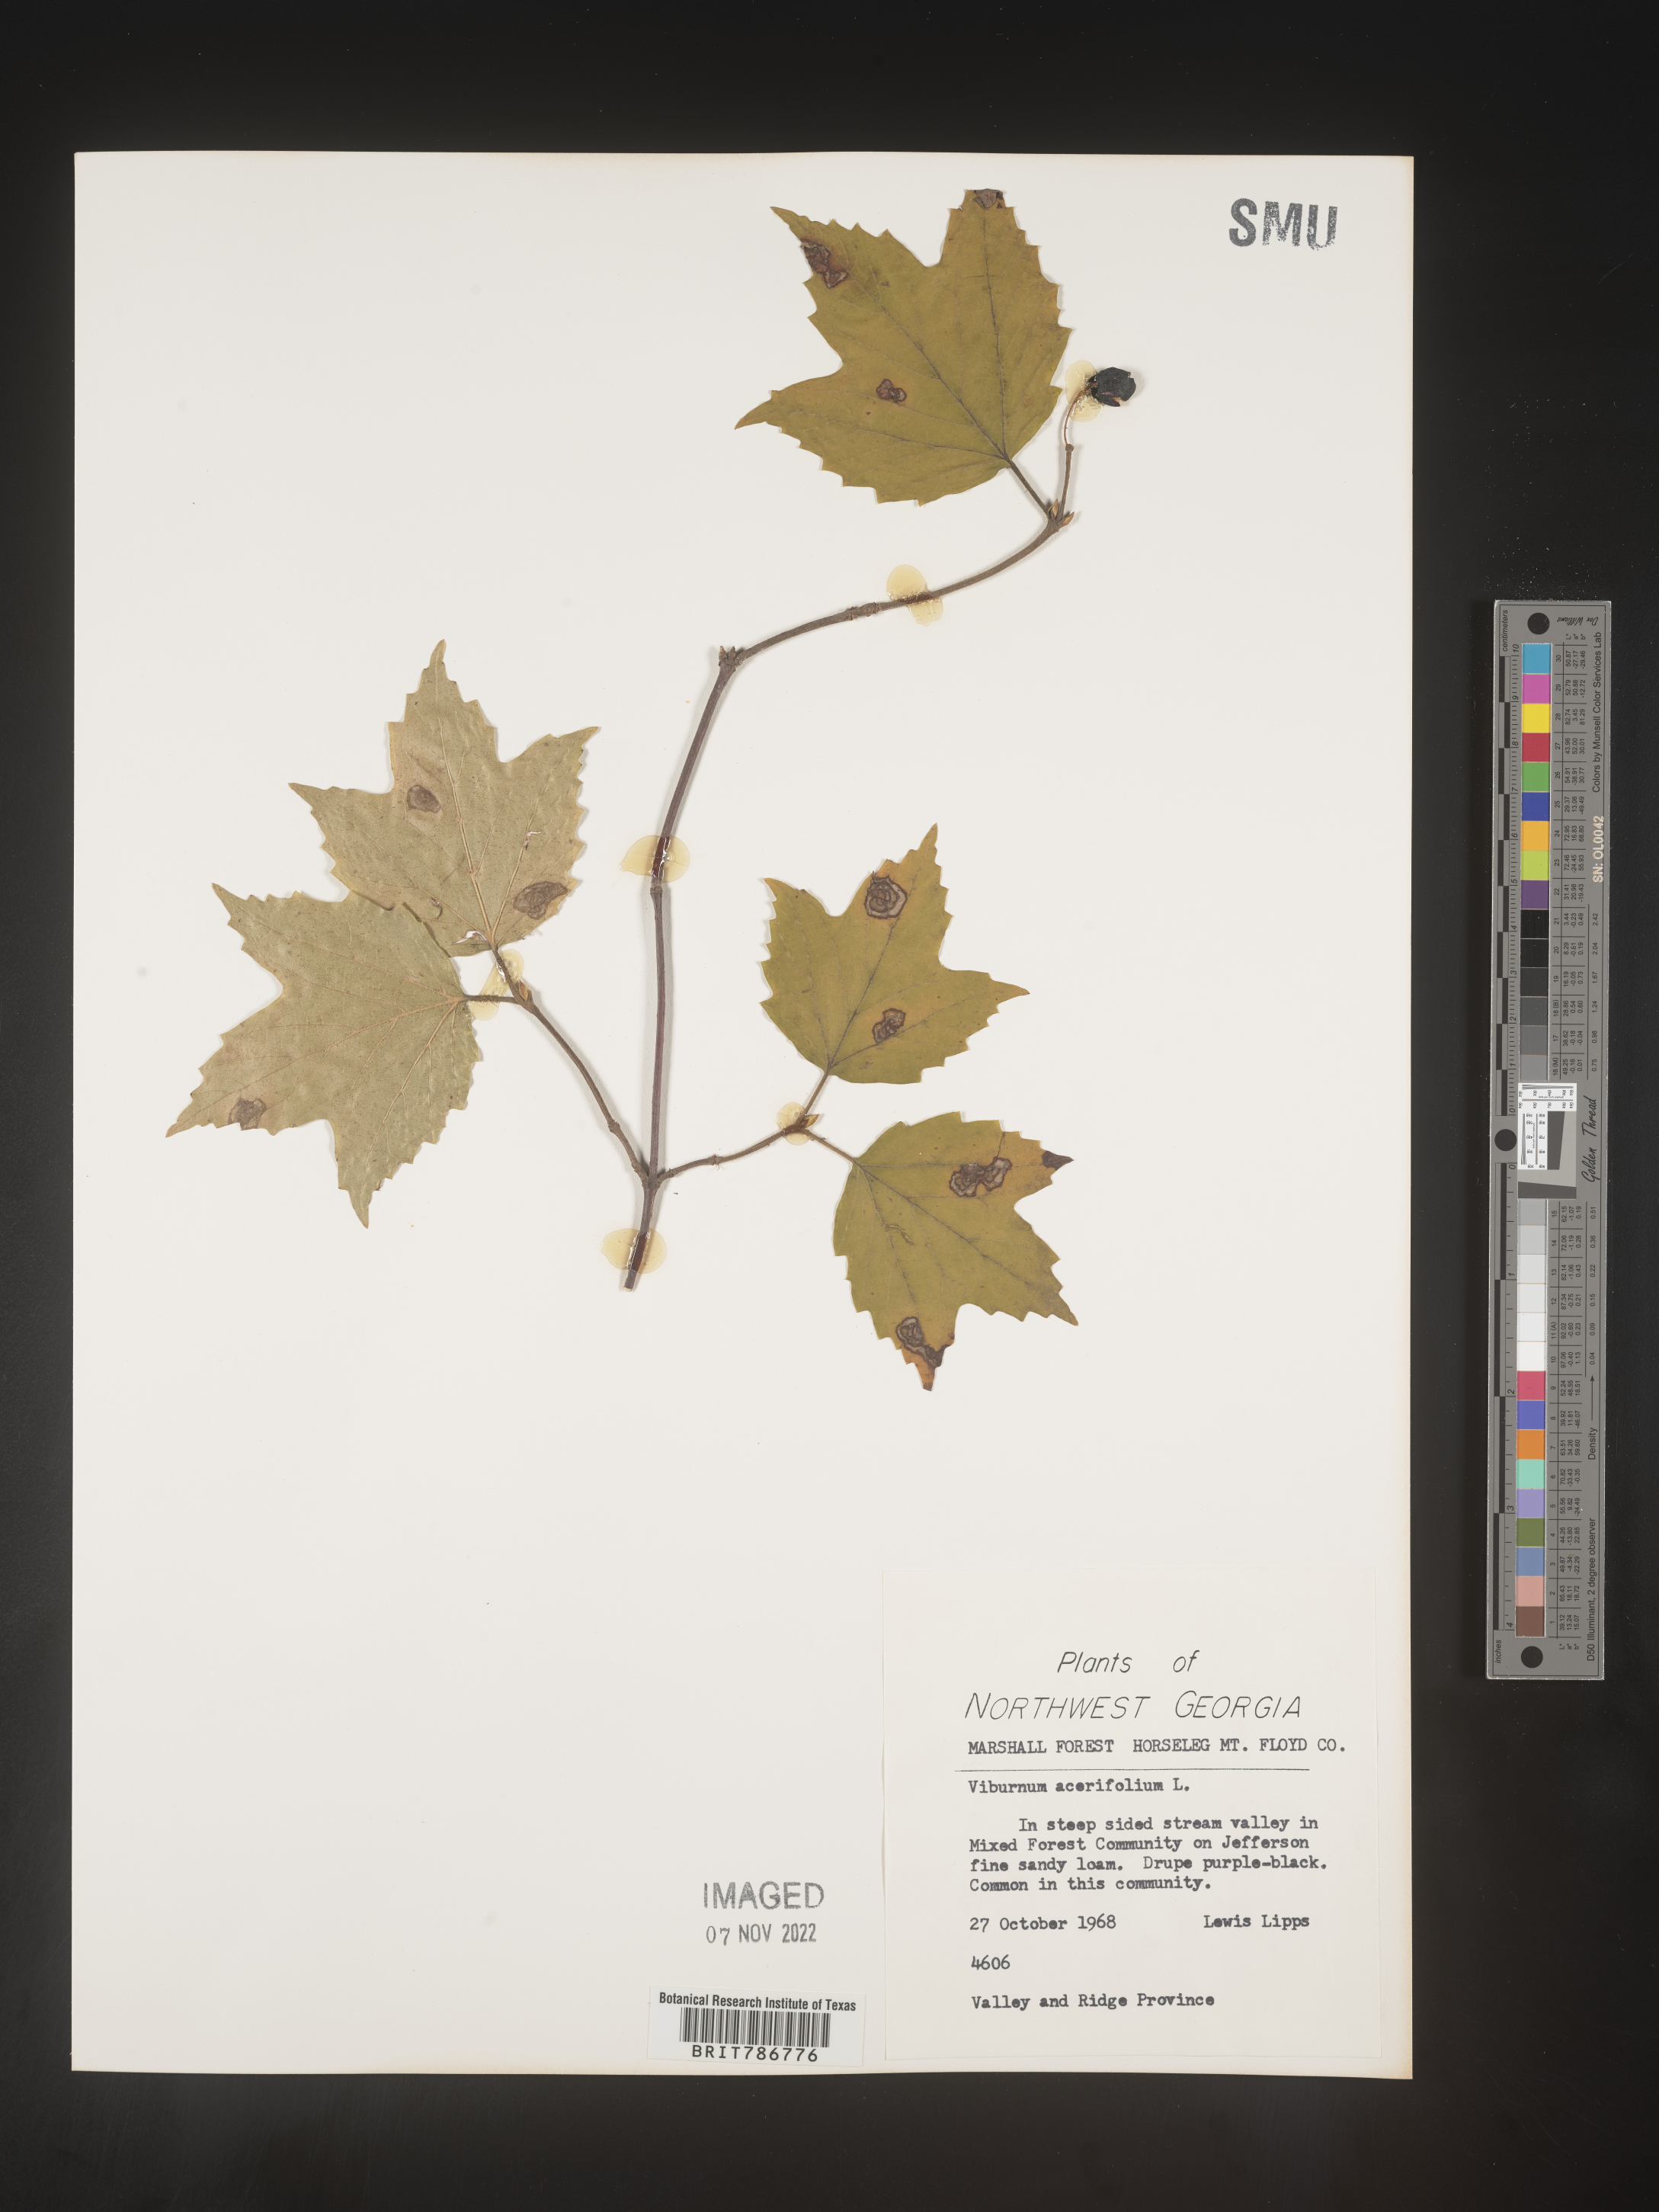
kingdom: Plantae
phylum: Tracheophyta
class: Magnoliopsida
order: Dipsacales
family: Viburnaceae
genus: Viburnum
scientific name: Viburnum acerifolium
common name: Dockmackie
